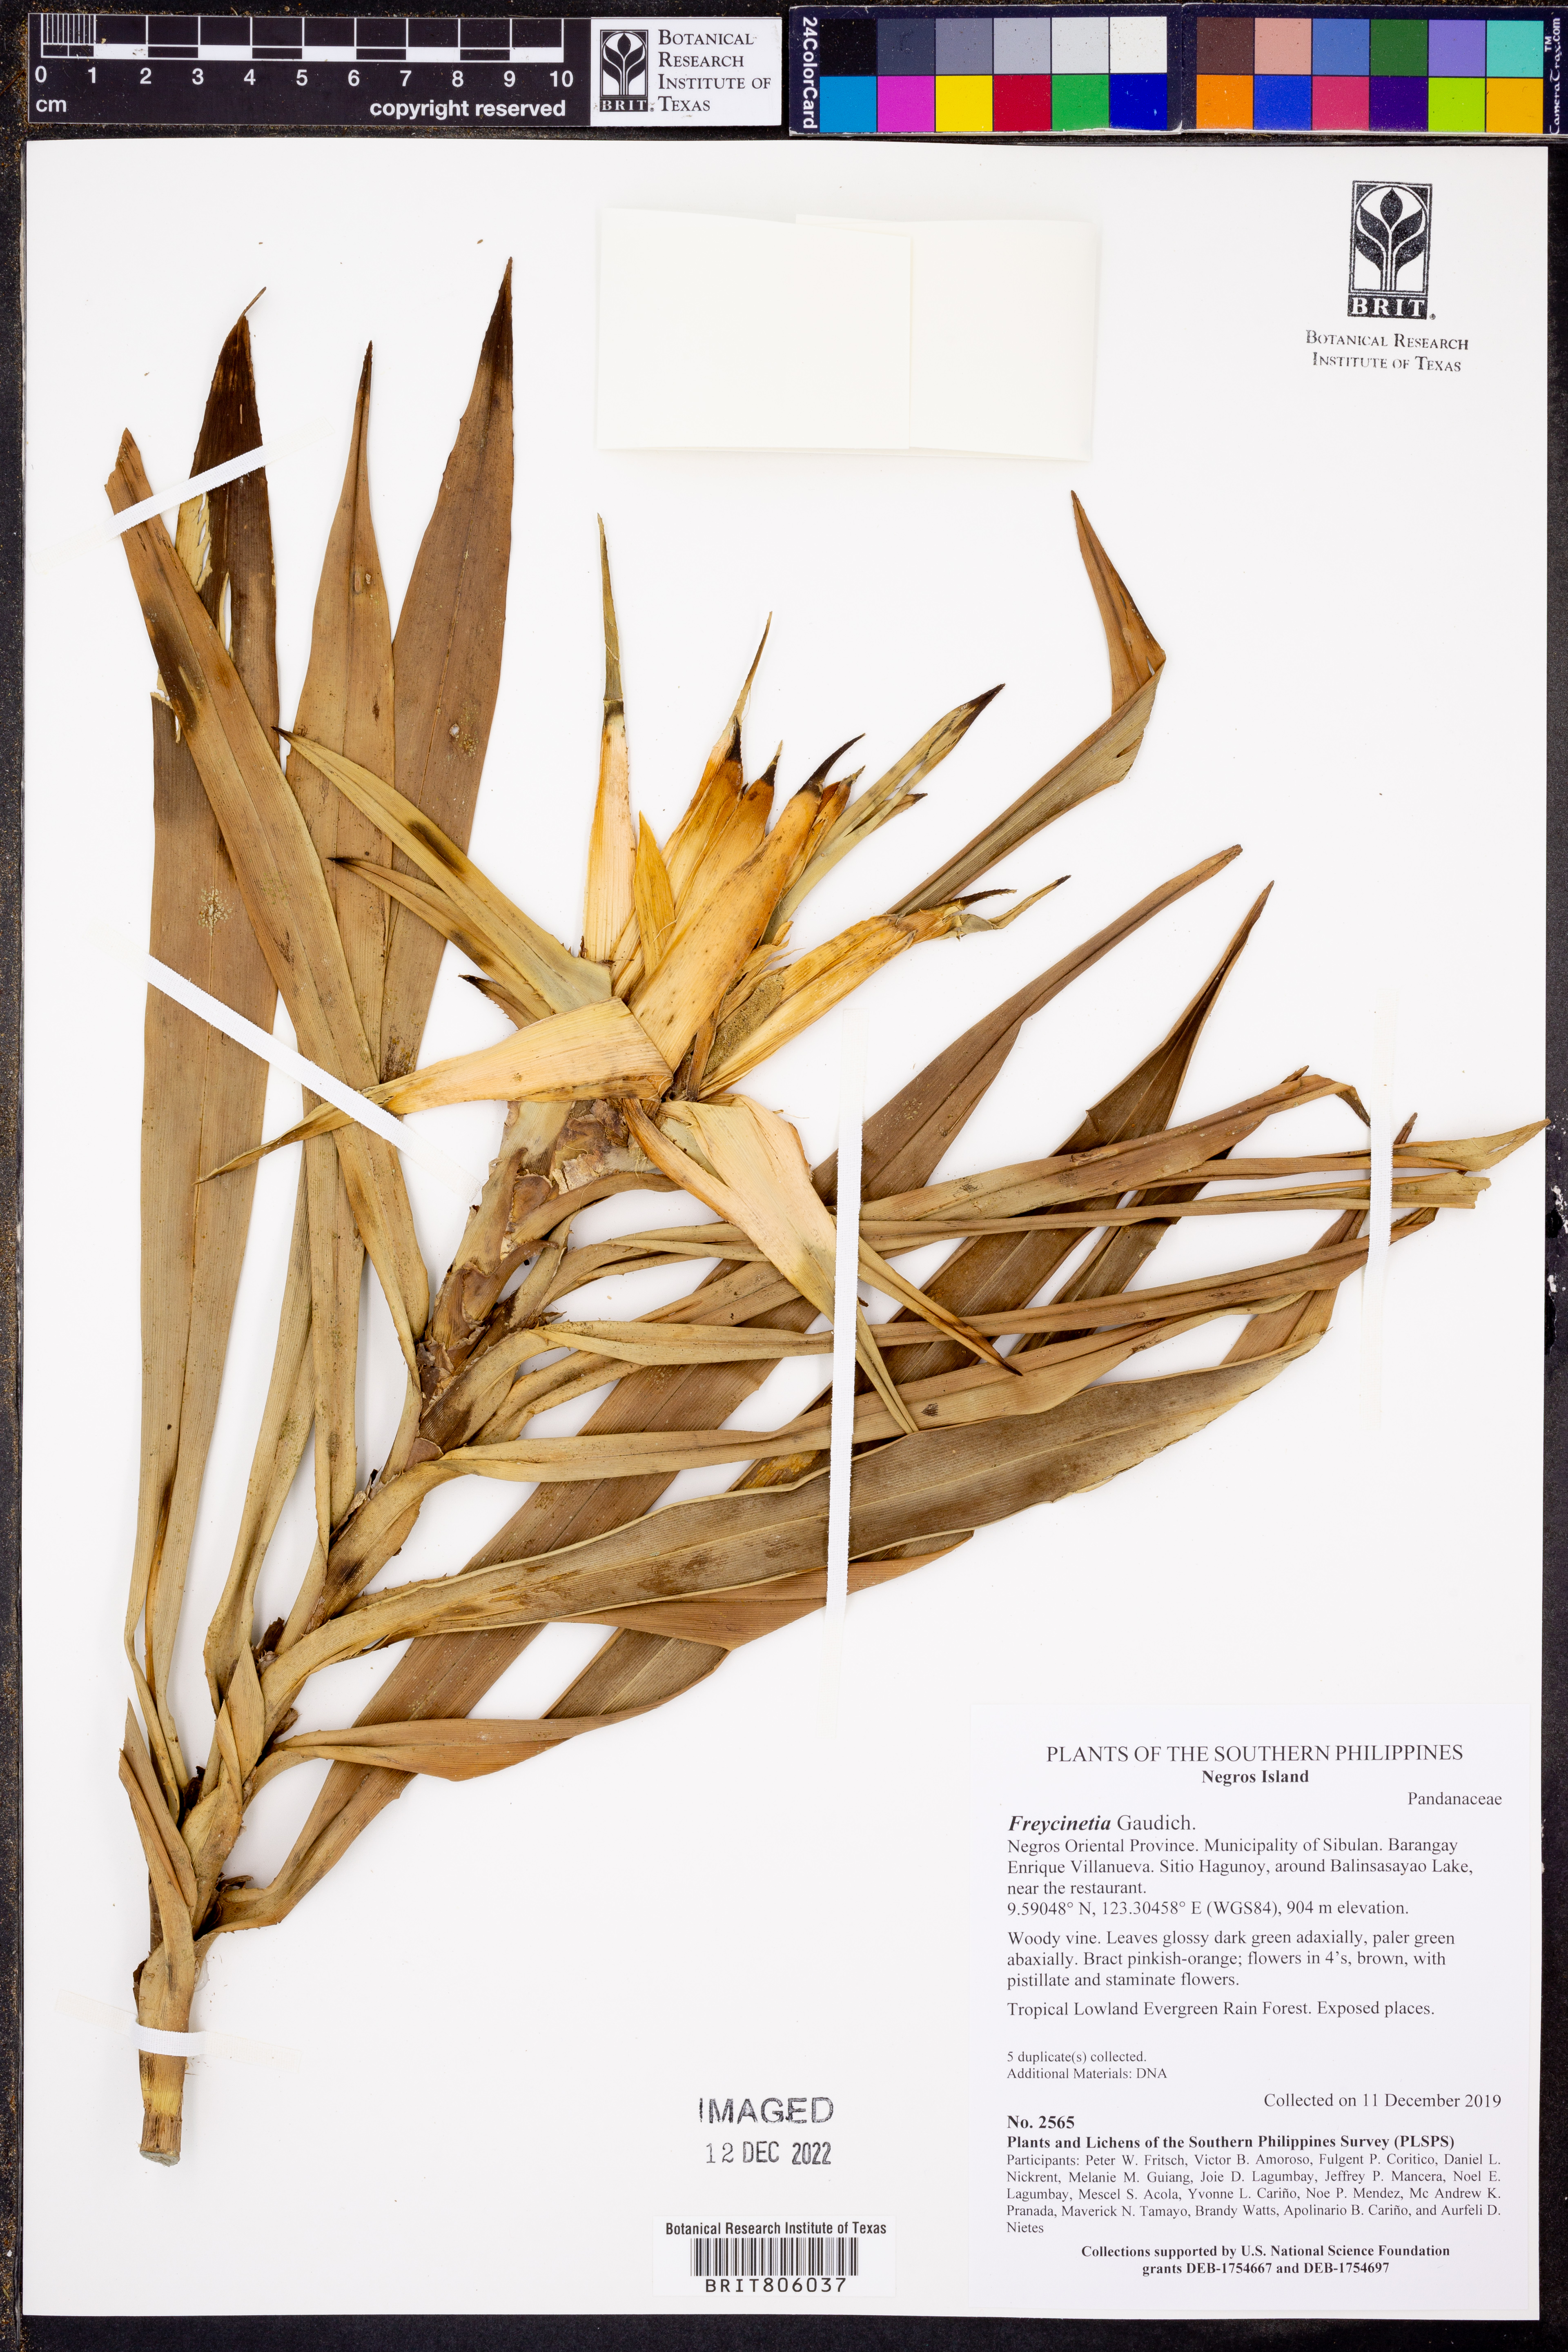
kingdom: Plantae
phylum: Tracheophyta
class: Liliopsida
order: Pandanales
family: Pandanaceae
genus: Freycinetia
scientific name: Freycinetia
